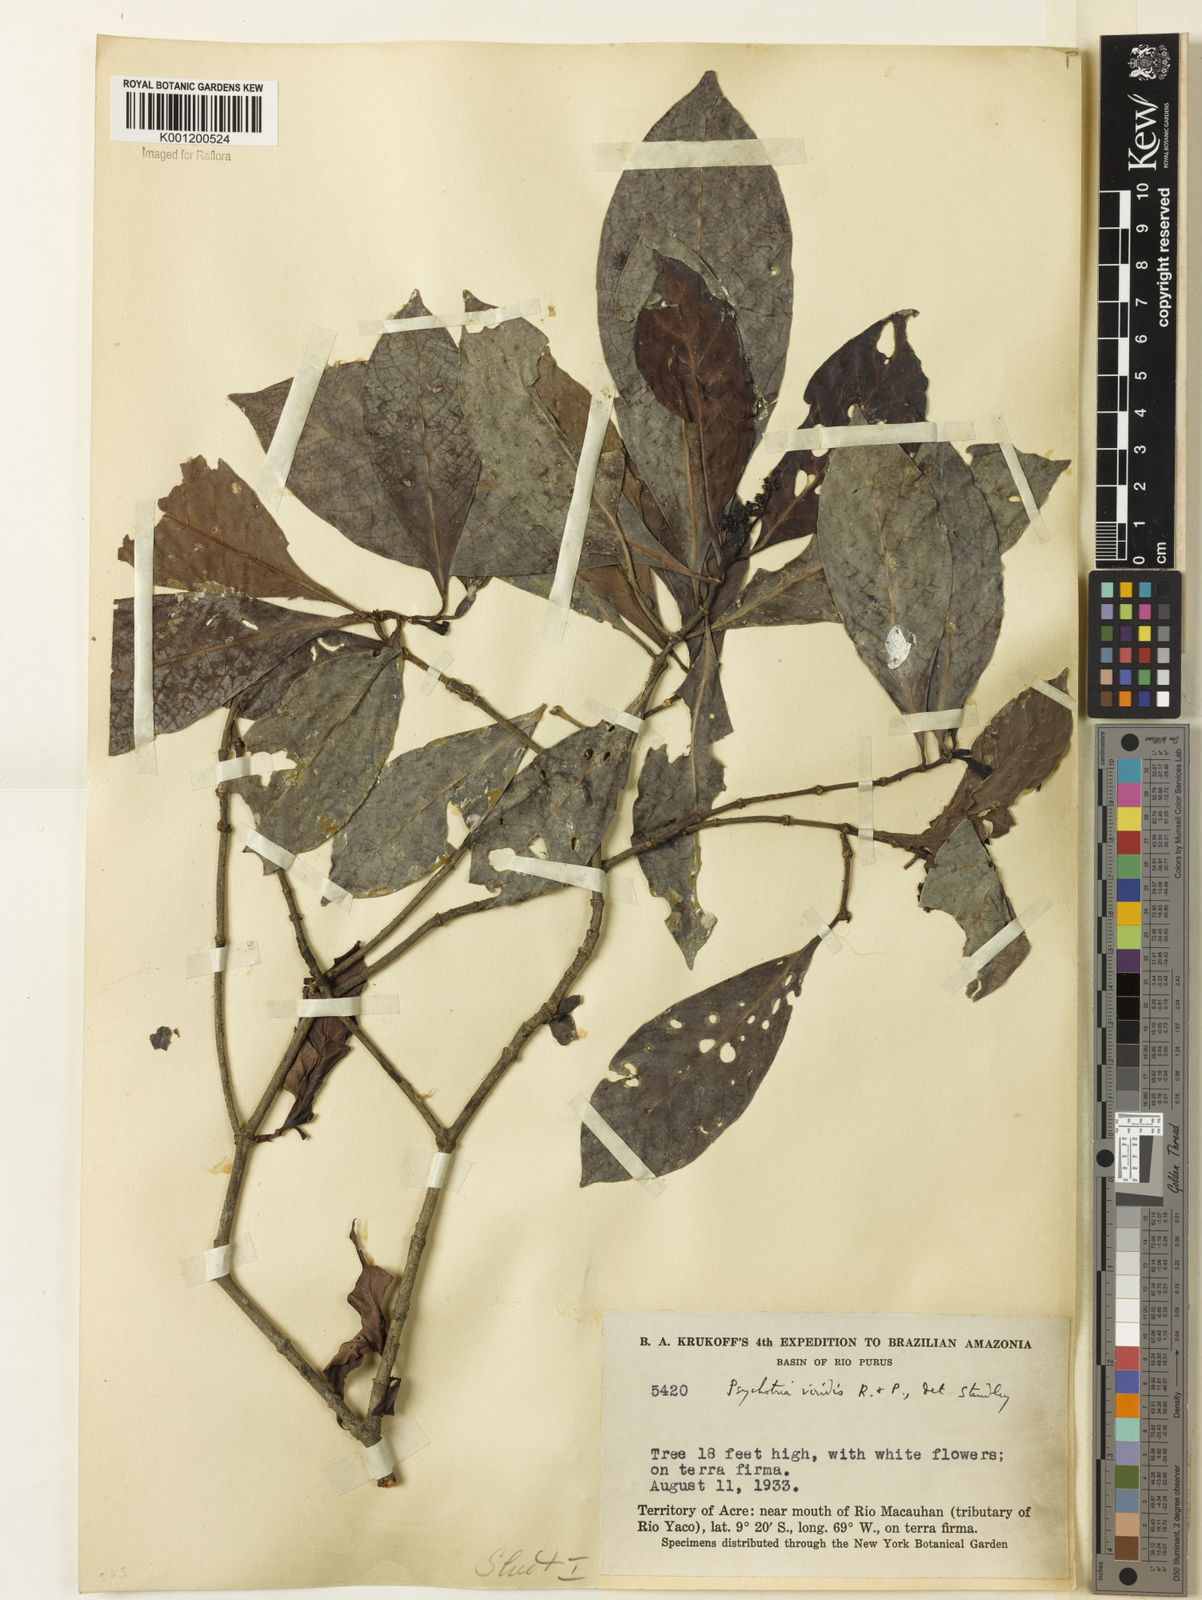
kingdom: Plantae
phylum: Tracheophyta
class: Magnoliopsida
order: Gentianales
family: Rubiaceae
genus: Psychotria
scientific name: Psychotria viridis
